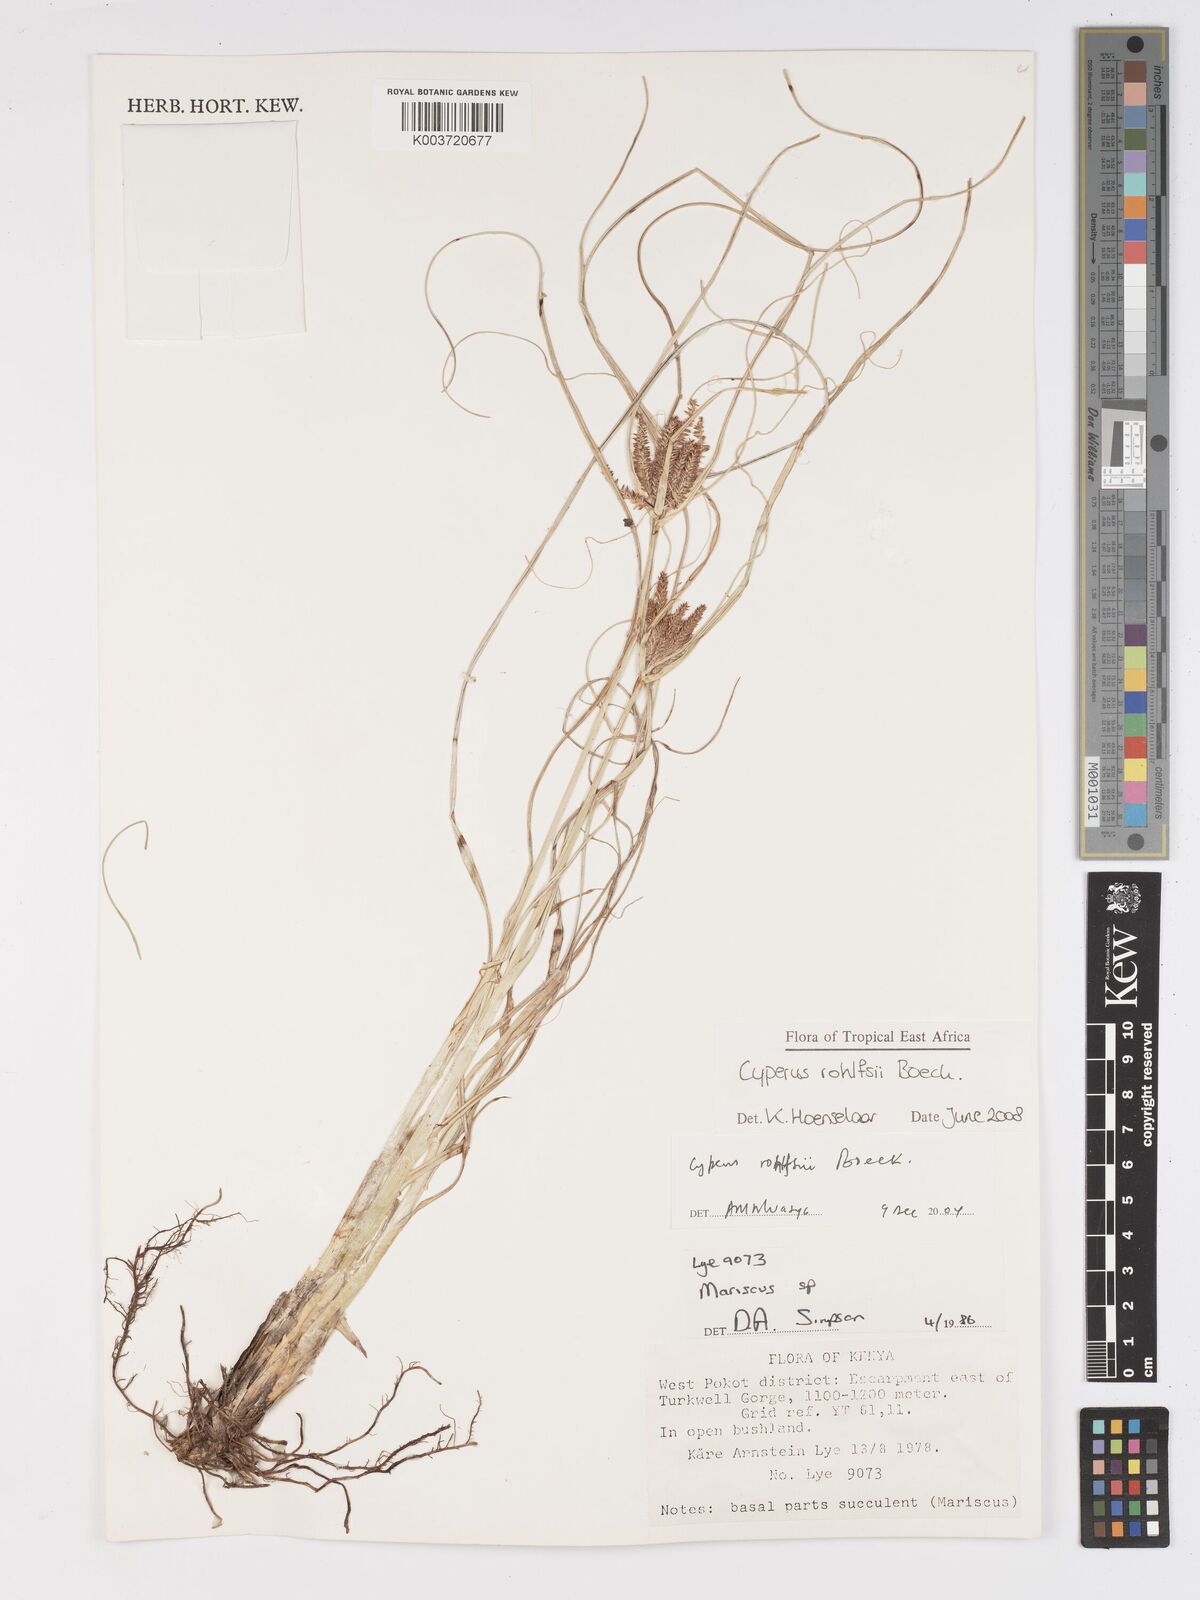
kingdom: Plantae
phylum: Tracheophyta
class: Liliopsida
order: Poales
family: Cyperaceae
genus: Cyperus
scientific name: Cyperus rohlfsii
